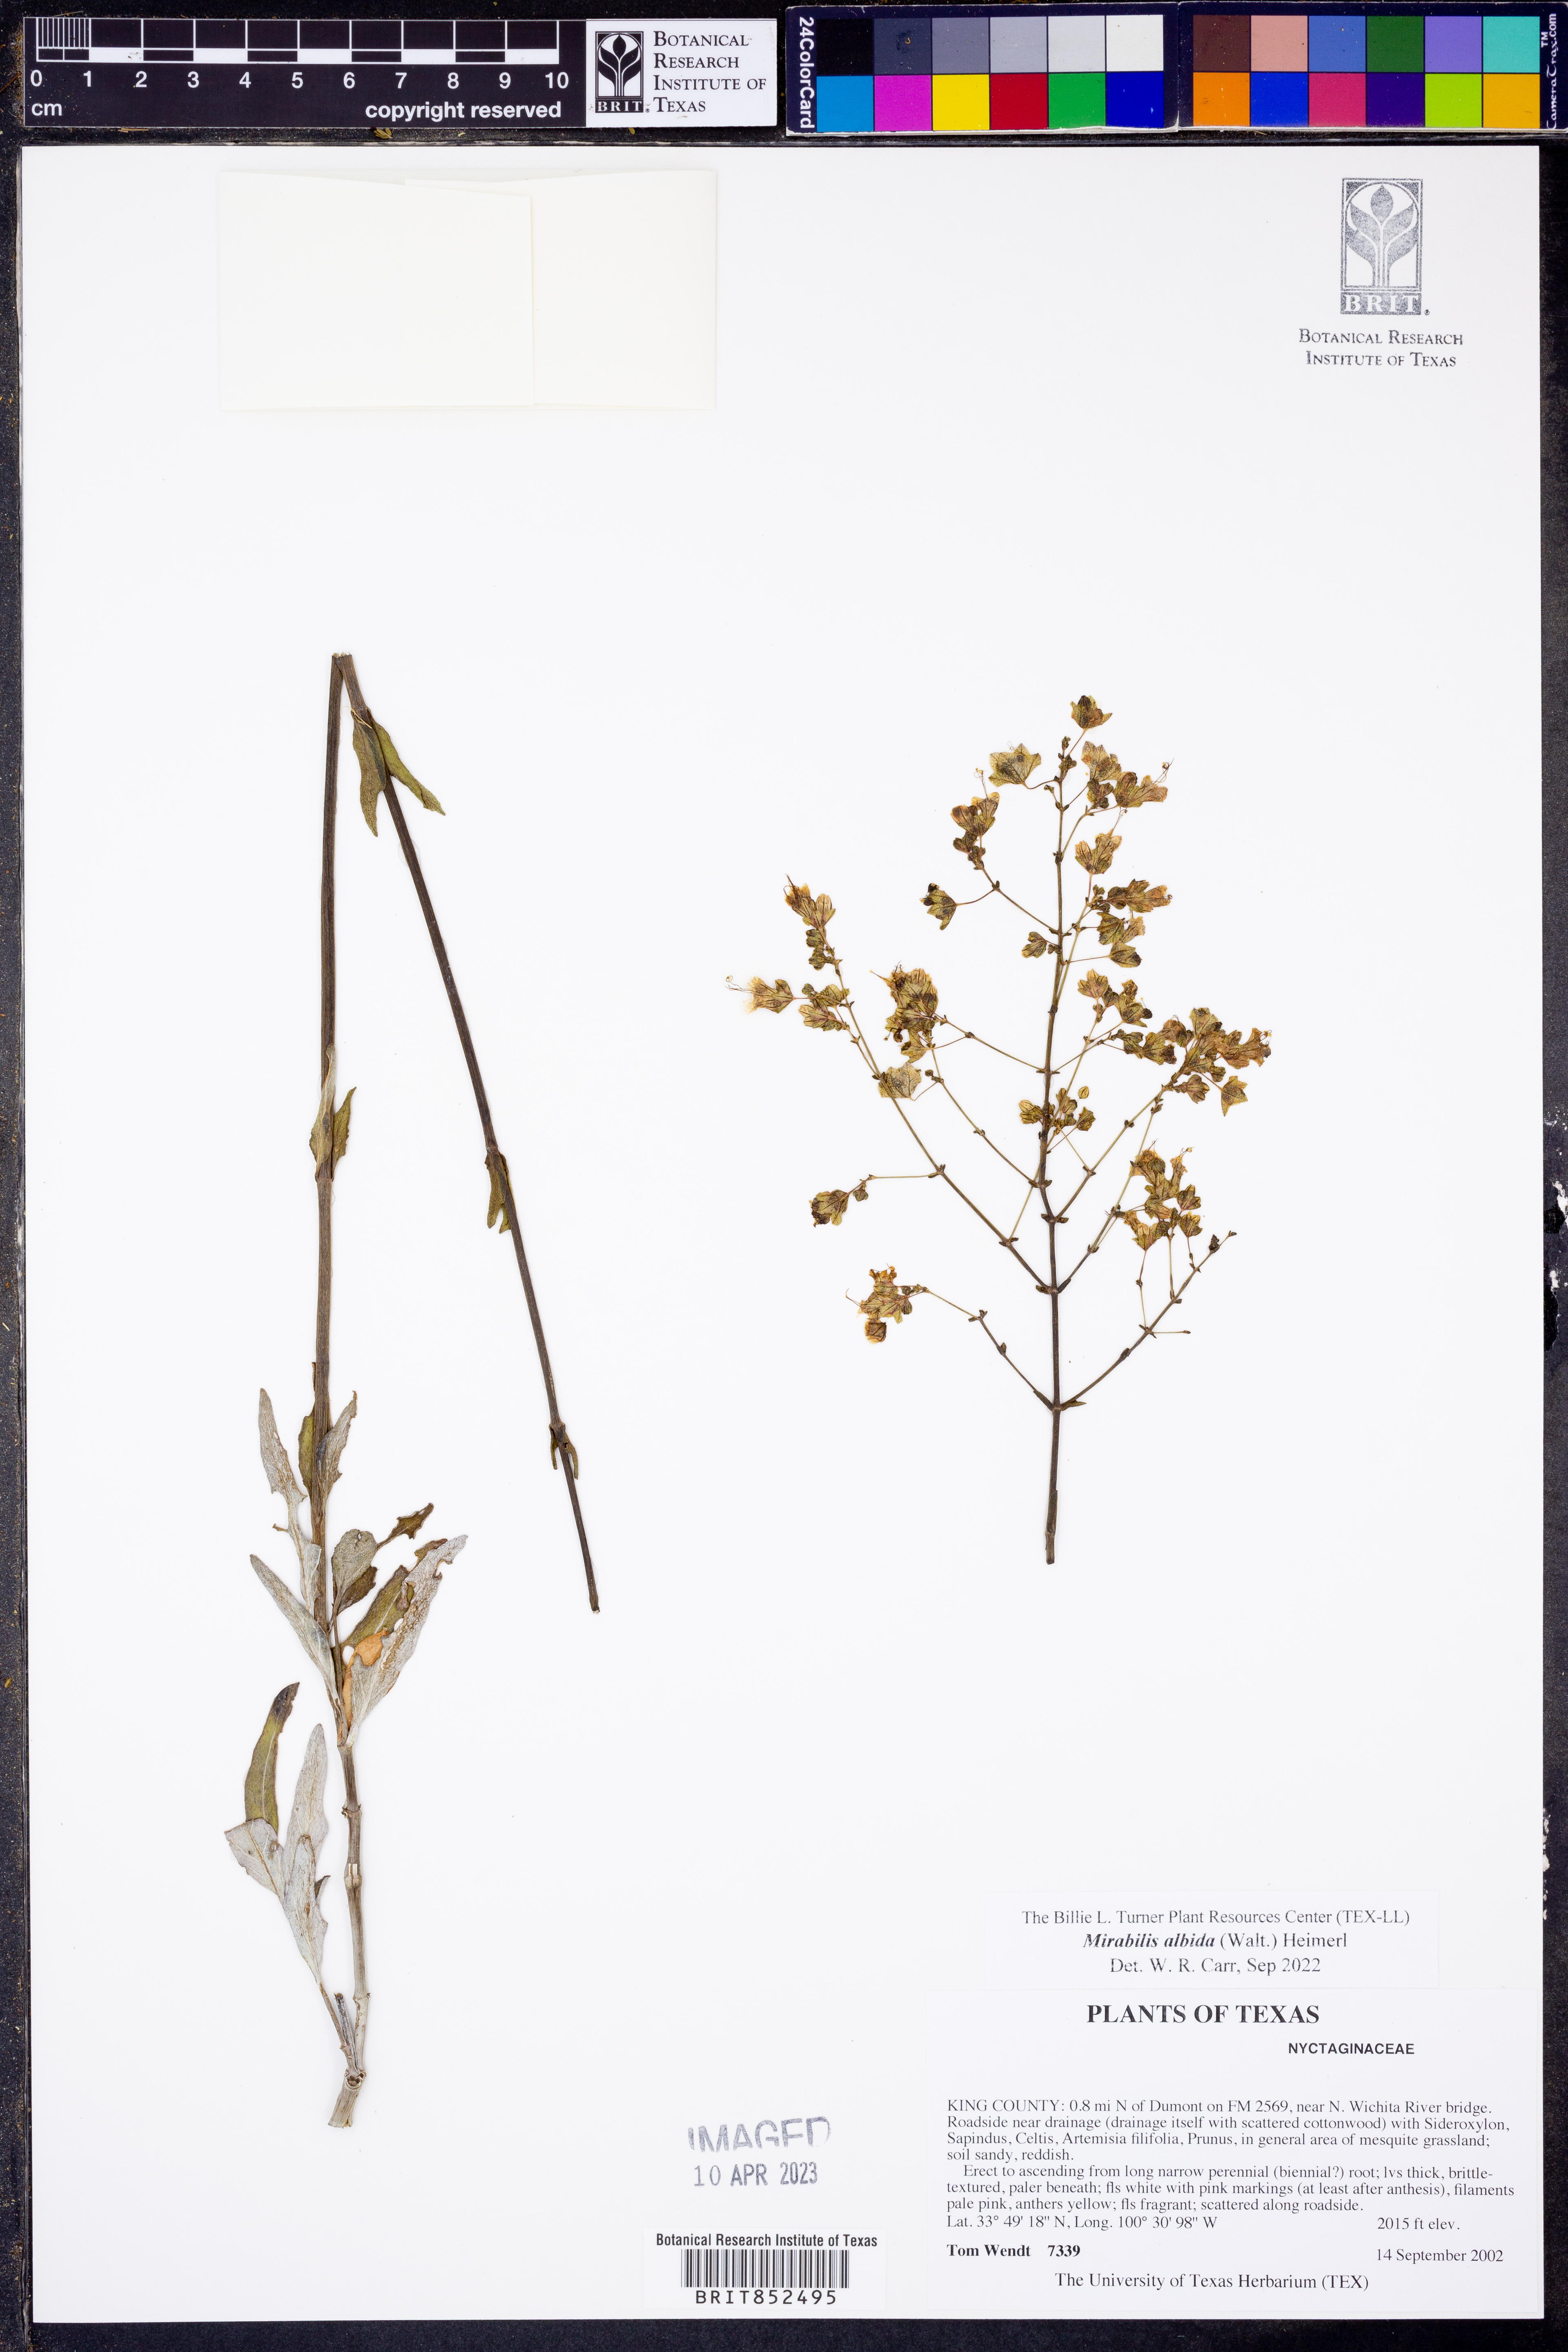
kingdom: Plantae
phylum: Tracheophyta
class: Magnoliopsida
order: Caryophyllales
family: Nyctaginaceae
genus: Mirabilis
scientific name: Mirabilis albida
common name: Hairy four-o'clock
